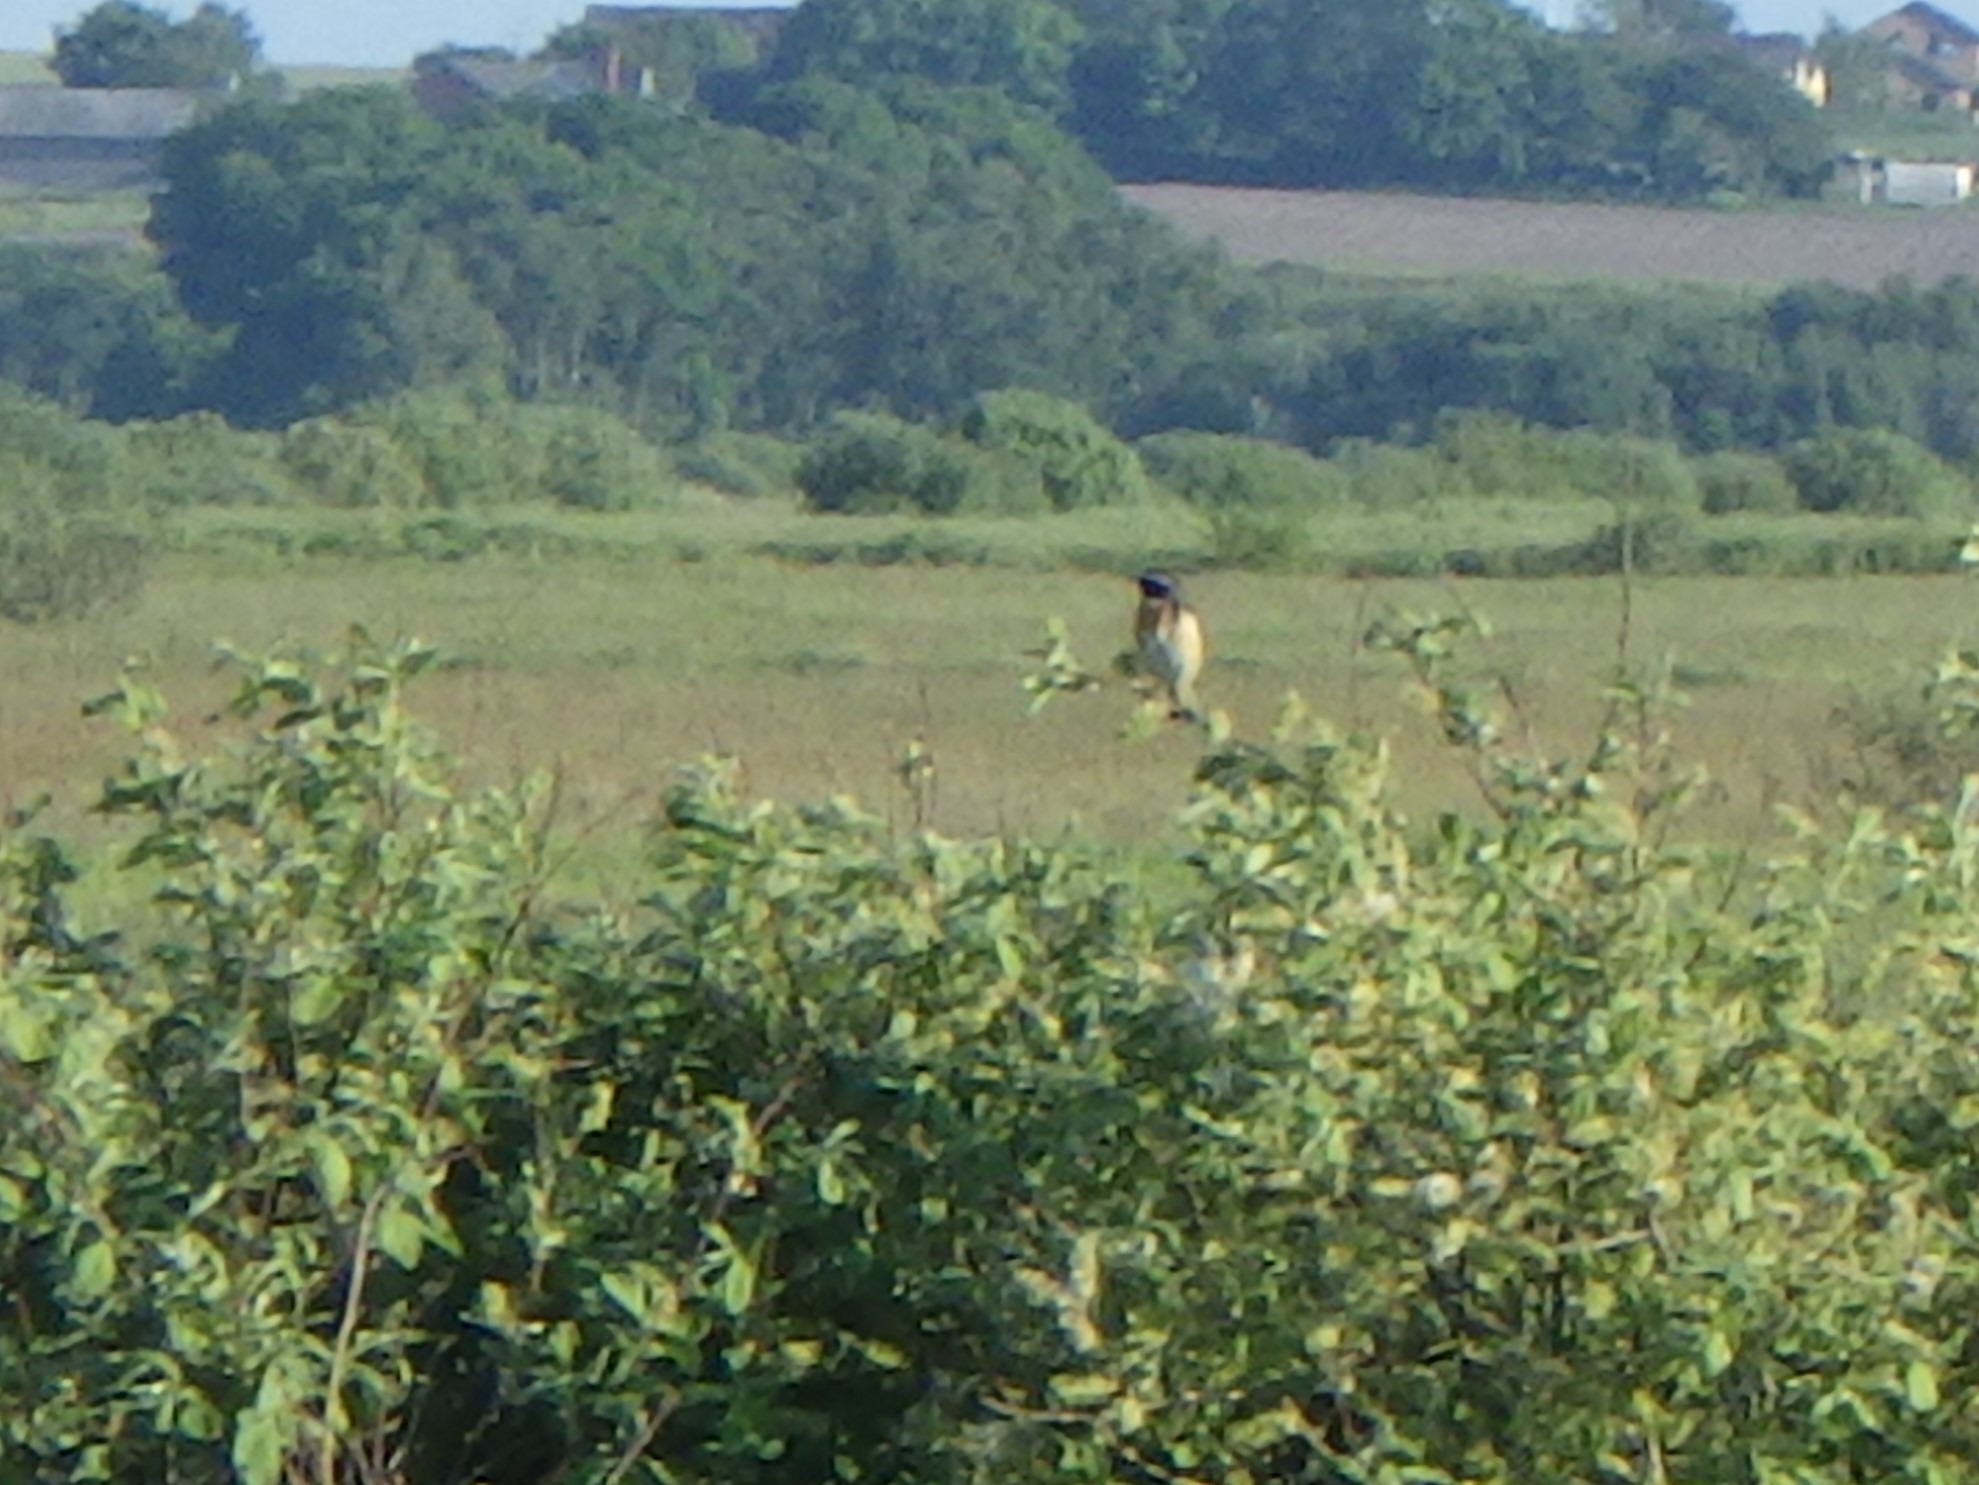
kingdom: Animalia
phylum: Chordata
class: Aves
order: Passeriformes
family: Muscicapidae
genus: Saxicola
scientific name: Saxicola rubetra
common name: Bynkefugl
